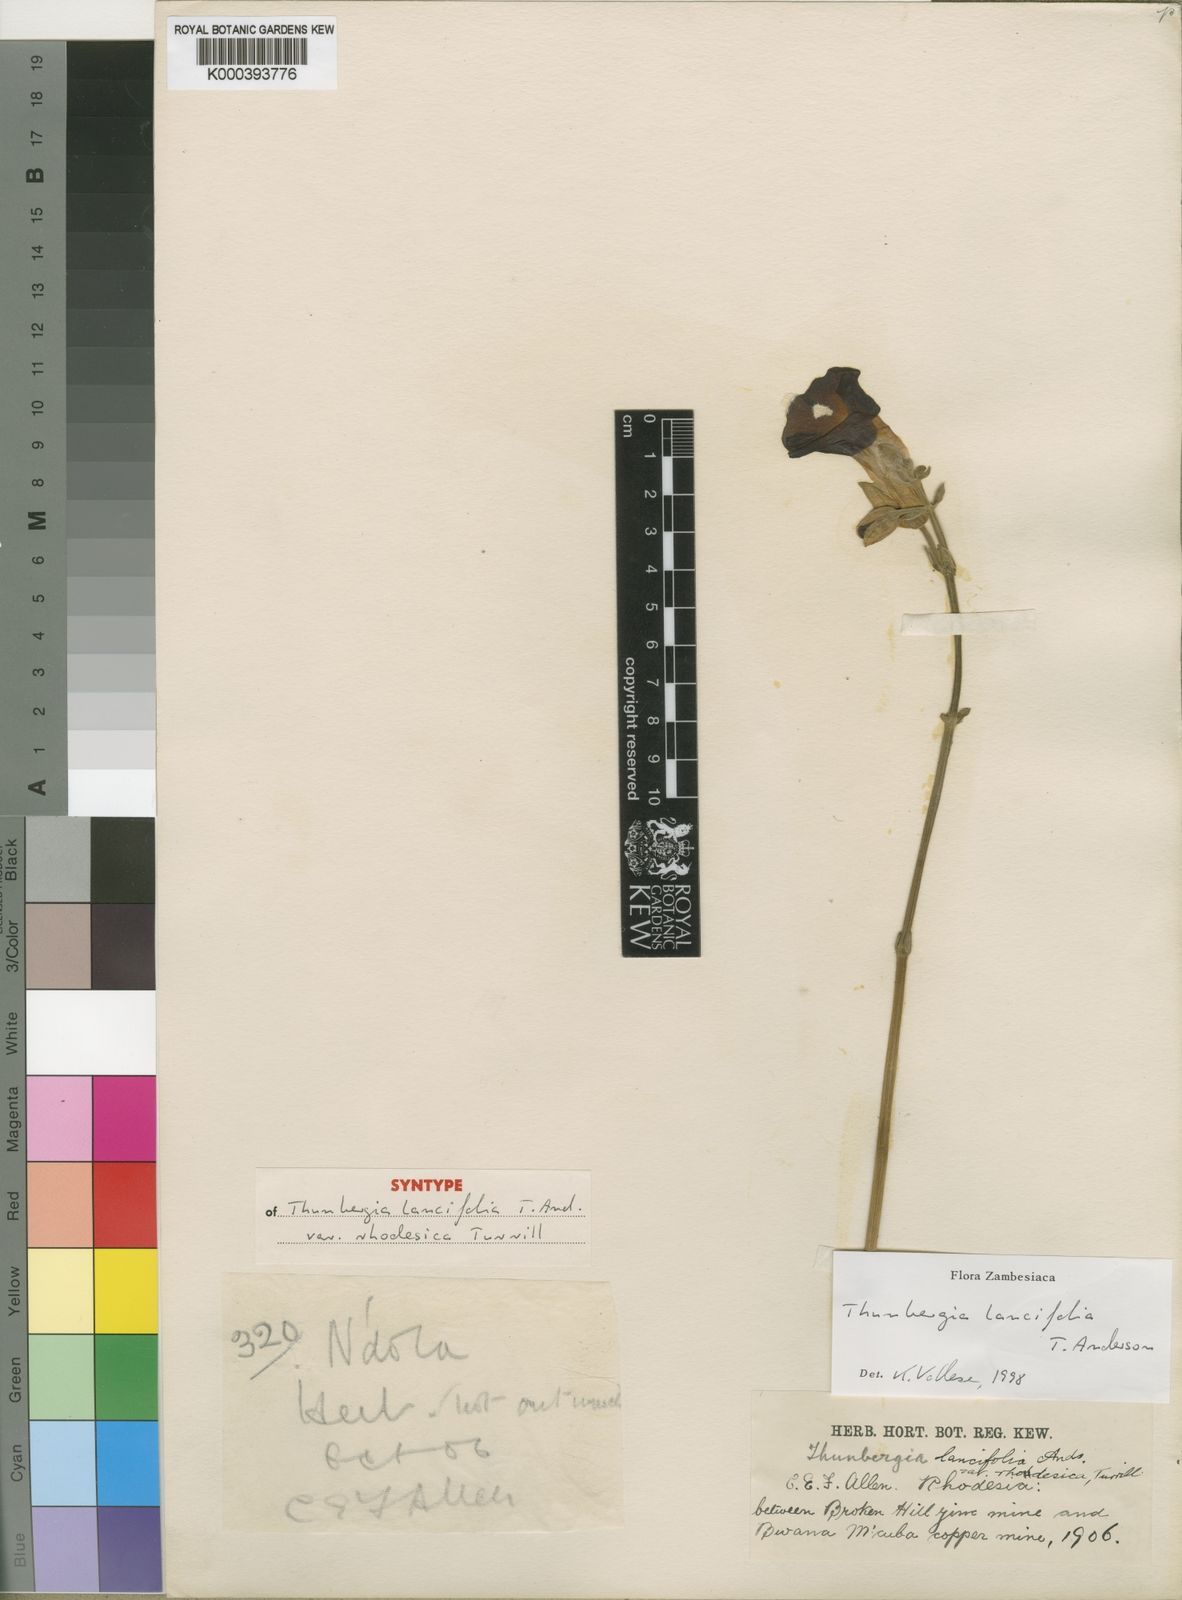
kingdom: Plantae
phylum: Tracheophyta
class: Magnoliopsida
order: Lamiales
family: Acanthaceae
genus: Thunbergia
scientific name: Thunbergia lancifolia
